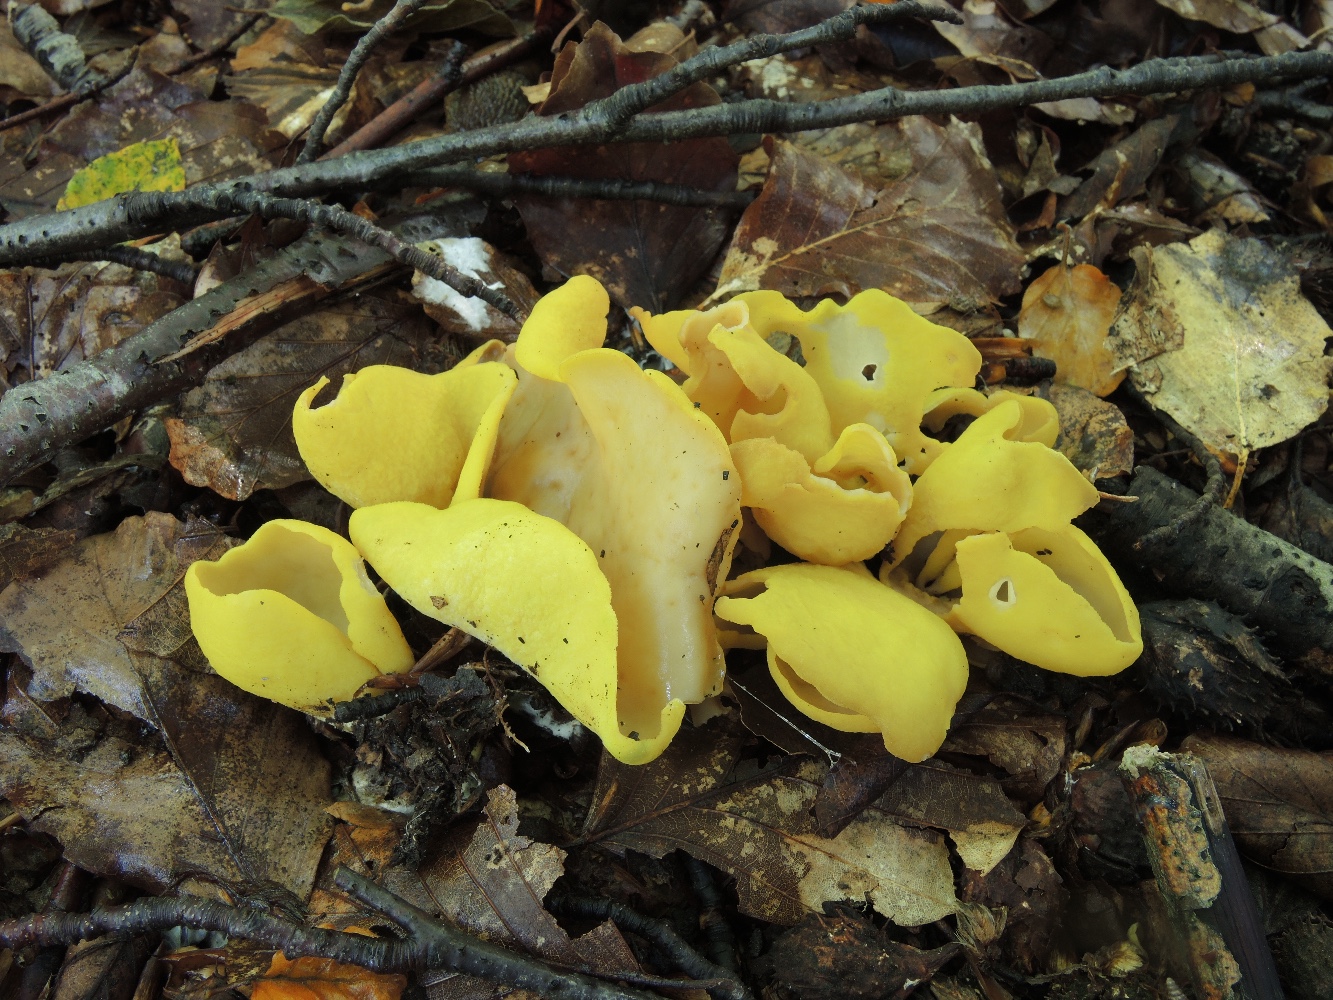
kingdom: Fungi
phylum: Ascomycota
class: Pezizomycetes
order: Pezizales
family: Otideaceae
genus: Otidea
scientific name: Otidea cantharella
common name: citrongul ørebæger
